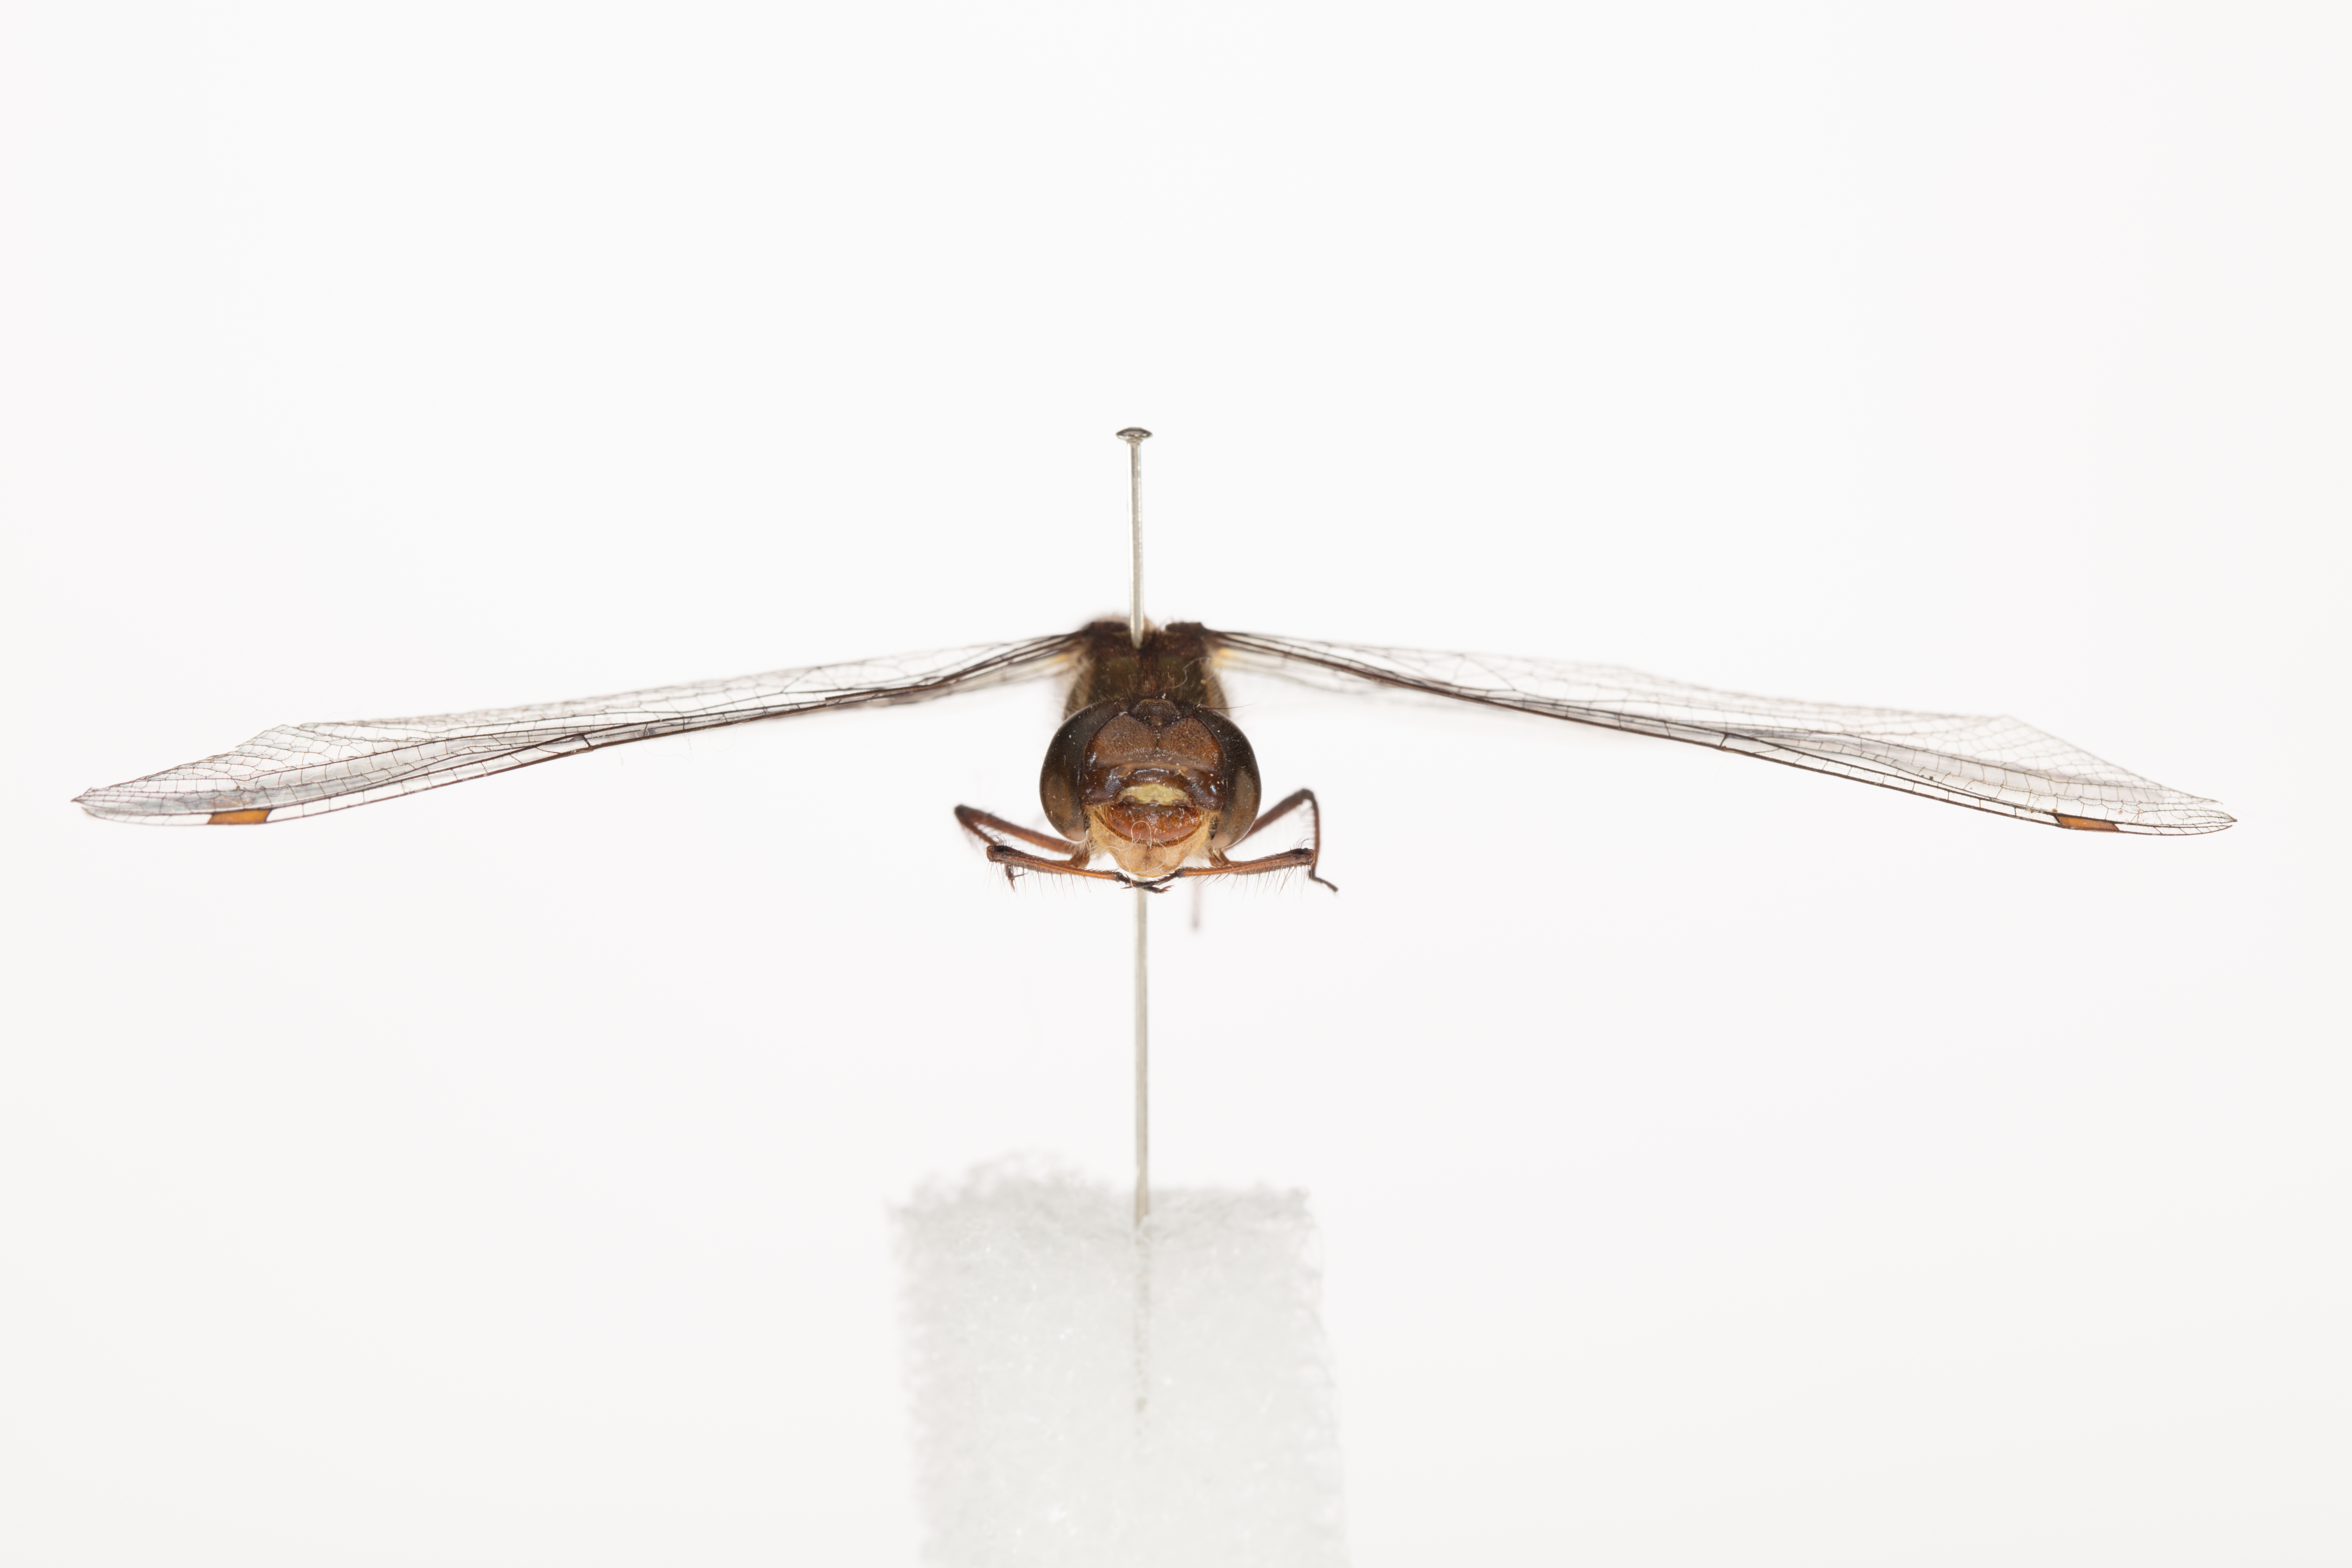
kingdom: Animalia
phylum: Arthropoda
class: Insecta
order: Odonata
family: Corduliidae
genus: Antipodochlora
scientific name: Antipodochlora braueri
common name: Dusk dragonfly
